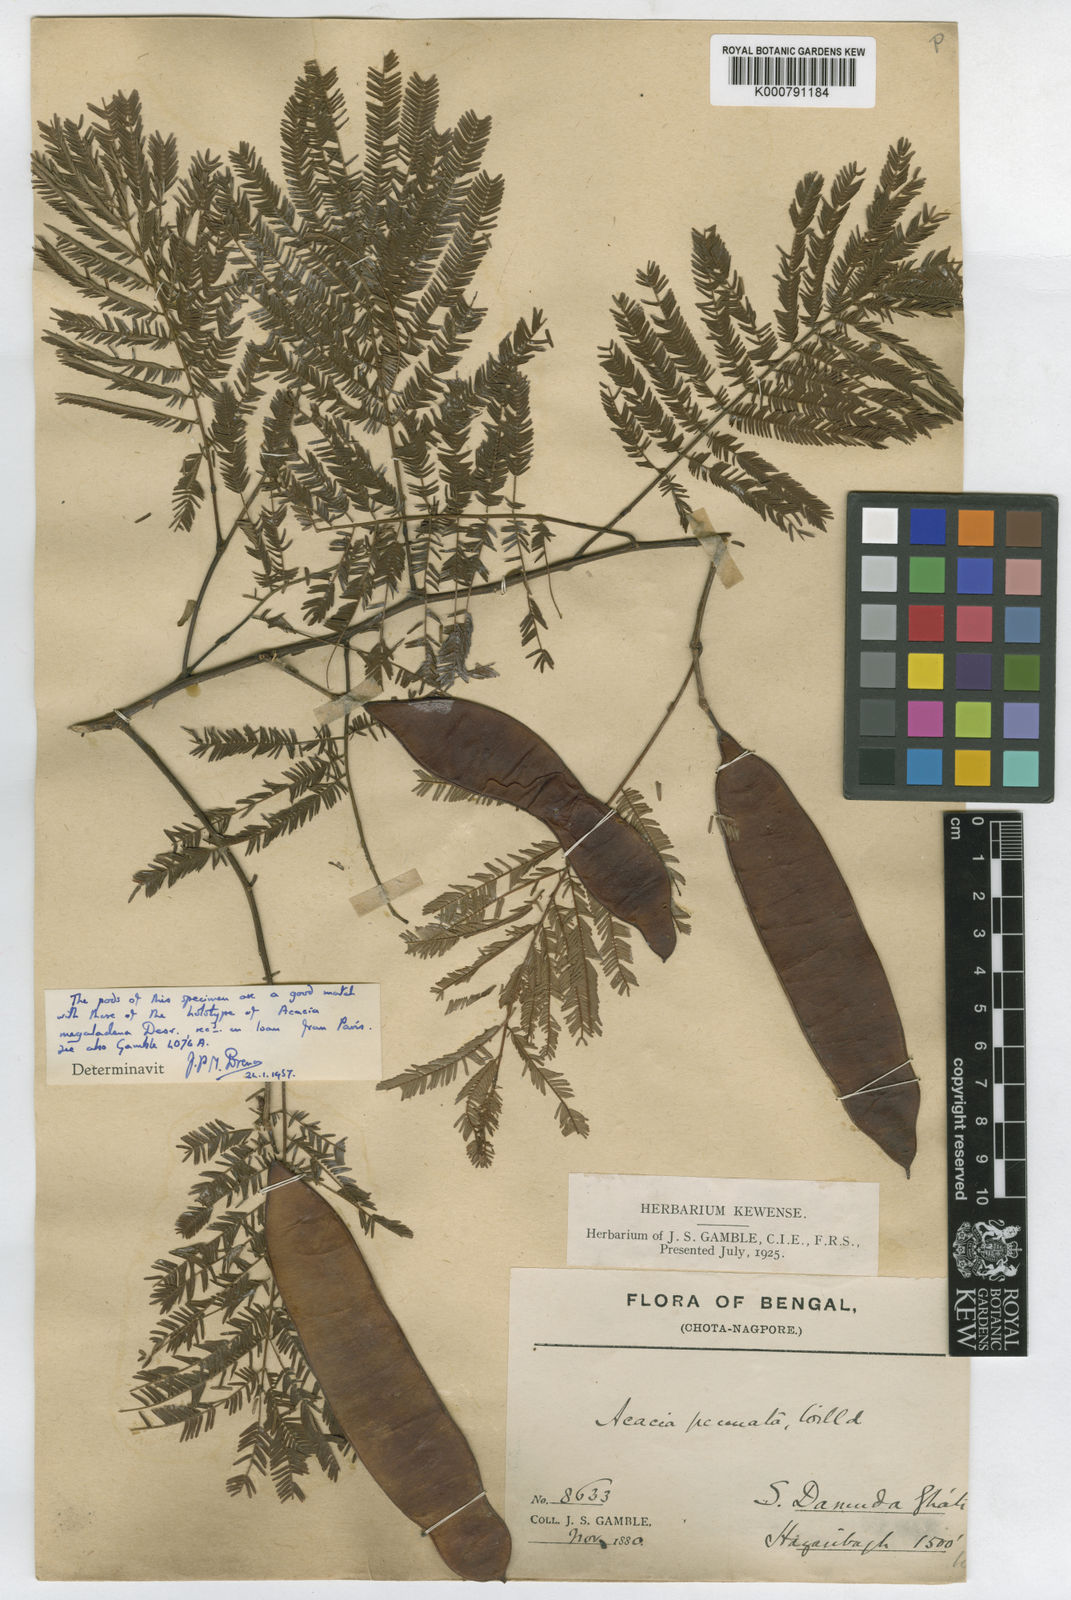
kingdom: Plantae
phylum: Tracheophyta
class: Magnoliopsida
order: Fabales
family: Fabaceae
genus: Senegalia
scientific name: Senegalia megaladena
